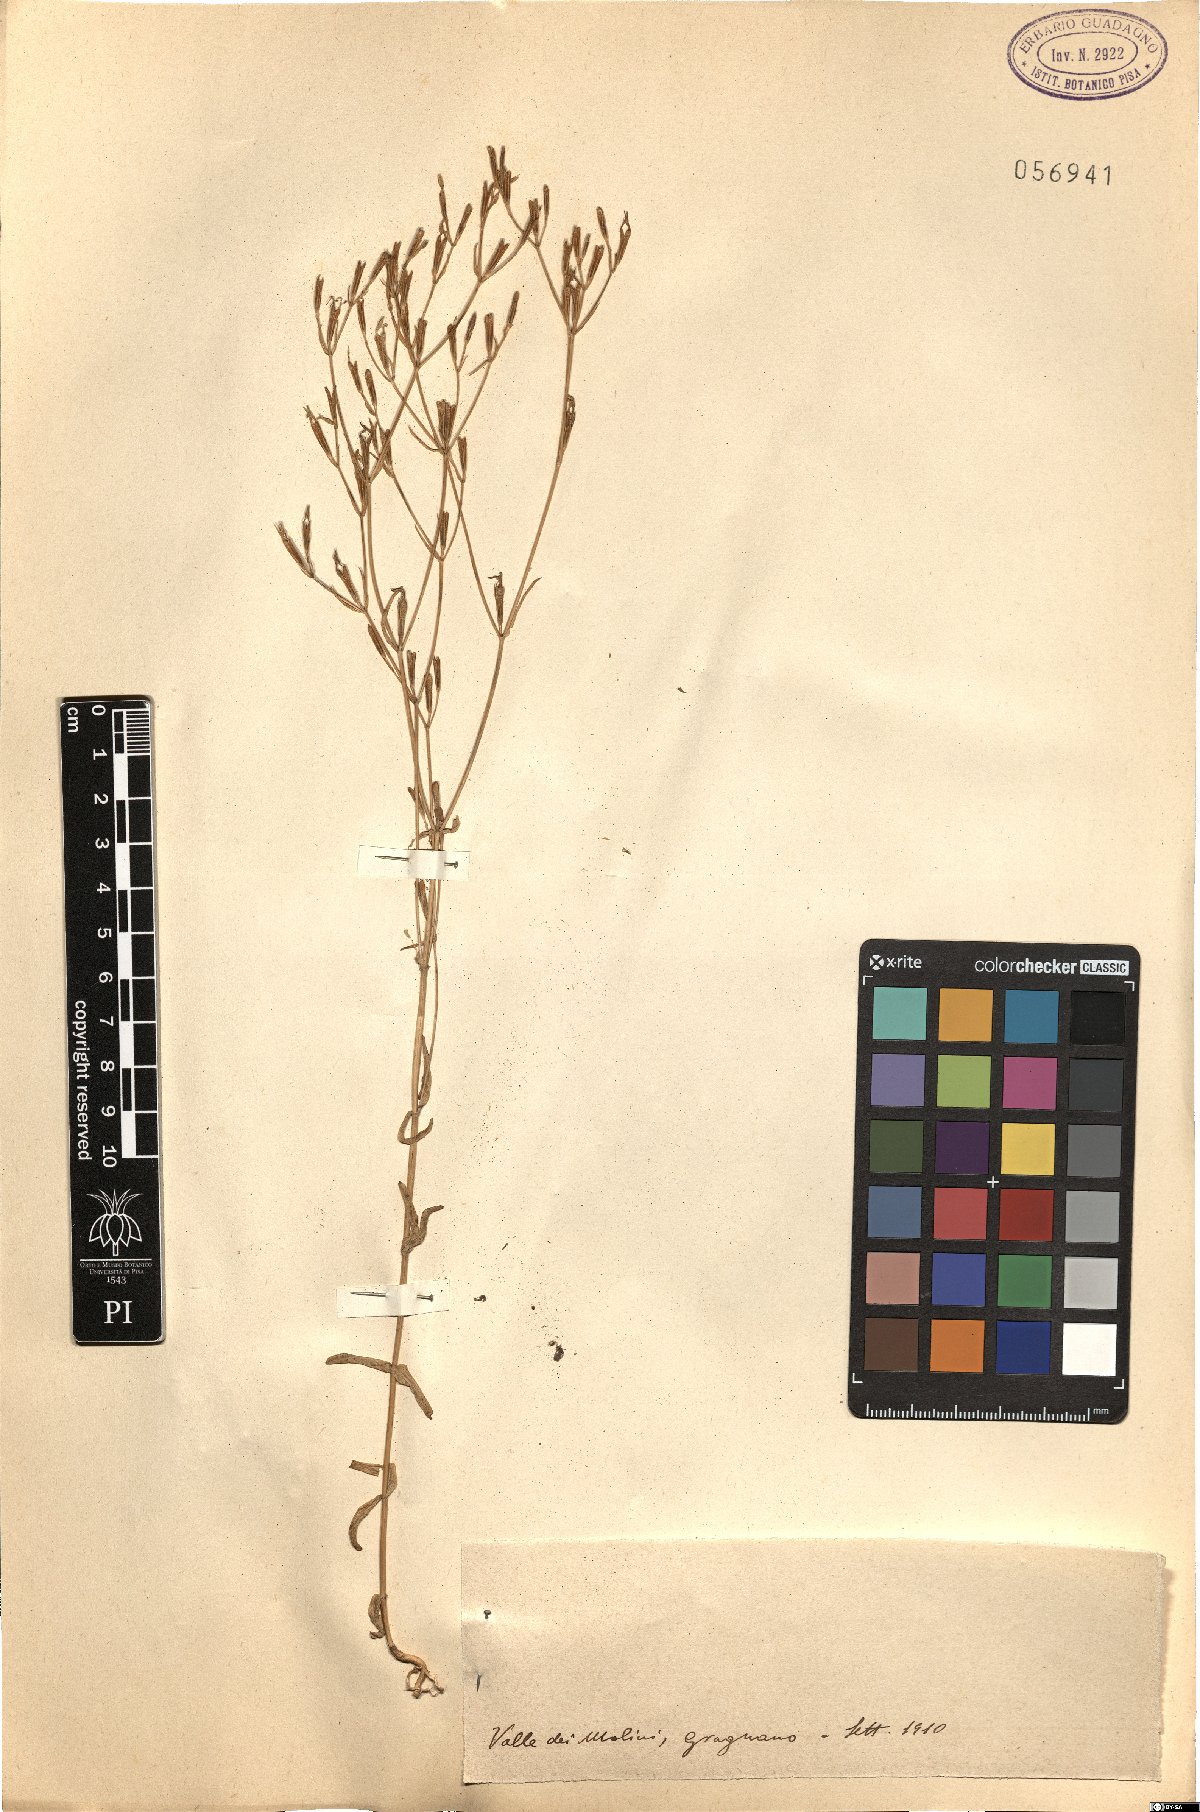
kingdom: Plantae
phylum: Tracheophyta
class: Magnoliopsida
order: Gentianales
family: Gentianaceae
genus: Erythraea
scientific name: Erythraea
